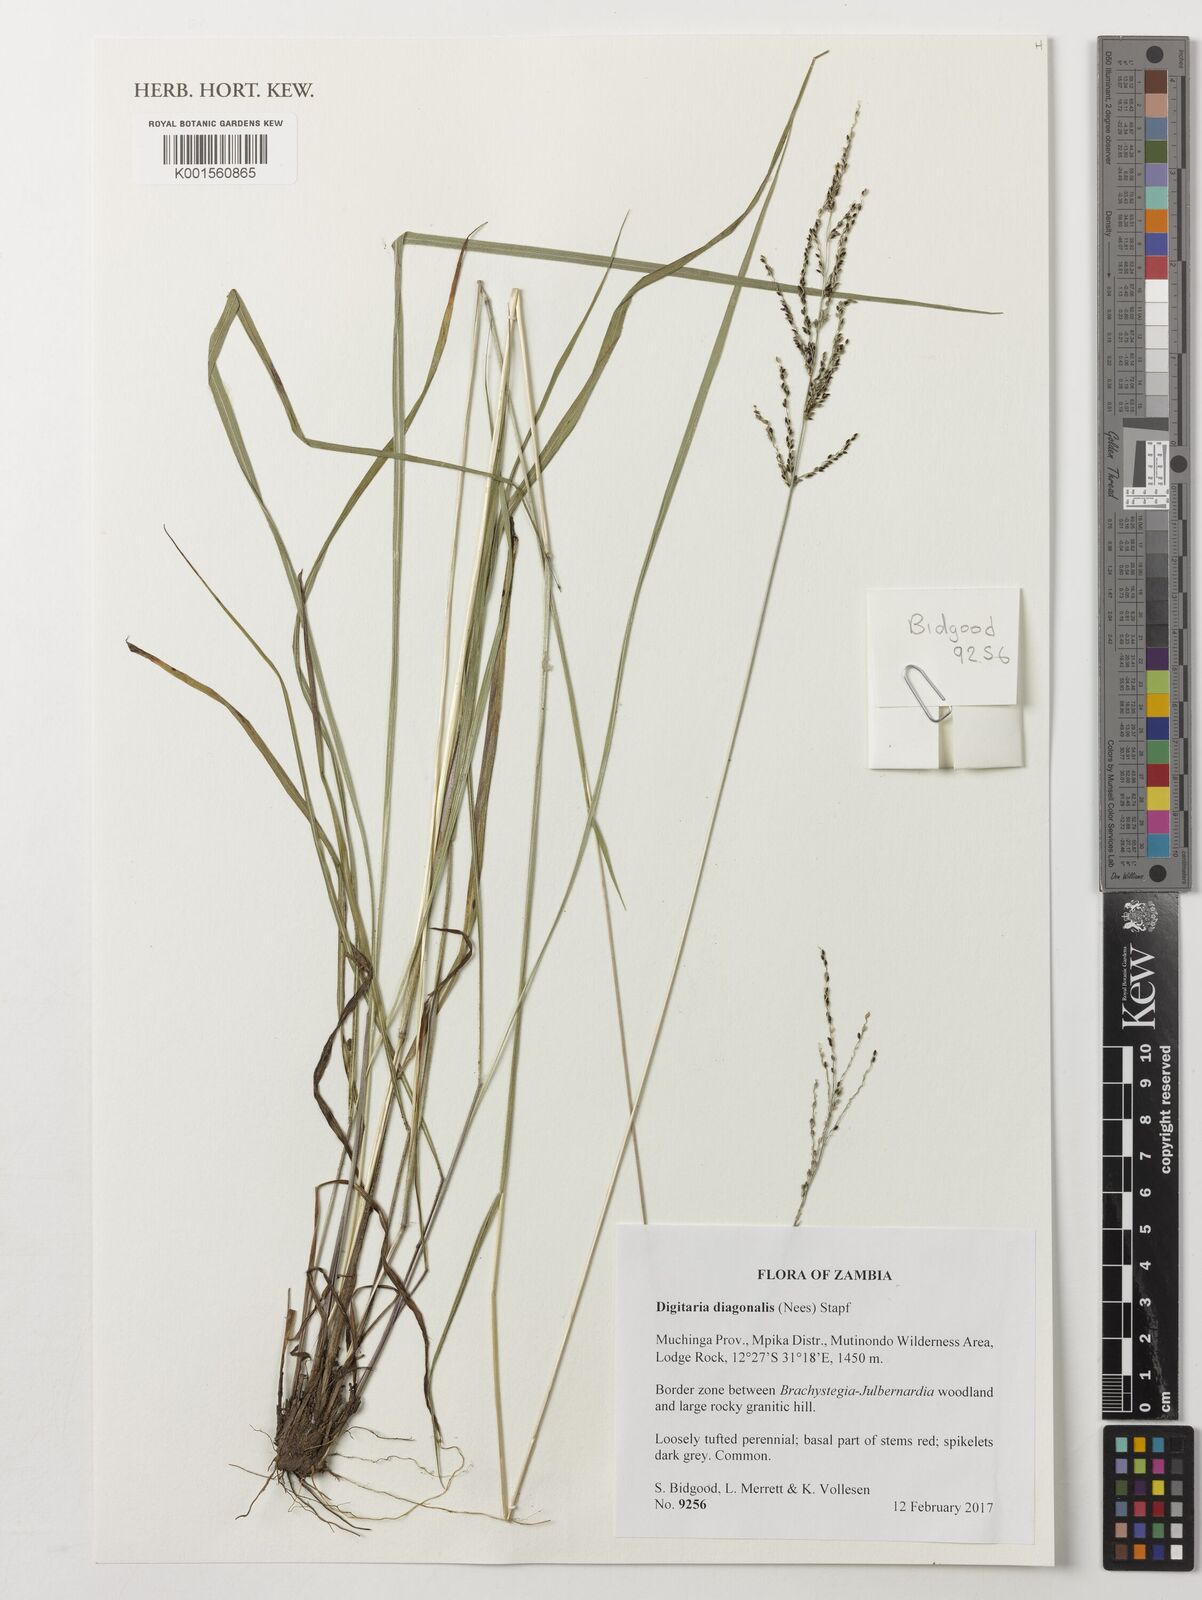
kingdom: Plantae
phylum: Tracheophyta
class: Liliopsida
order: Poales
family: Poaceae
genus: Digitaria
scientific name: Digitaria diagonalis
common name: Brown-seed finger grass
